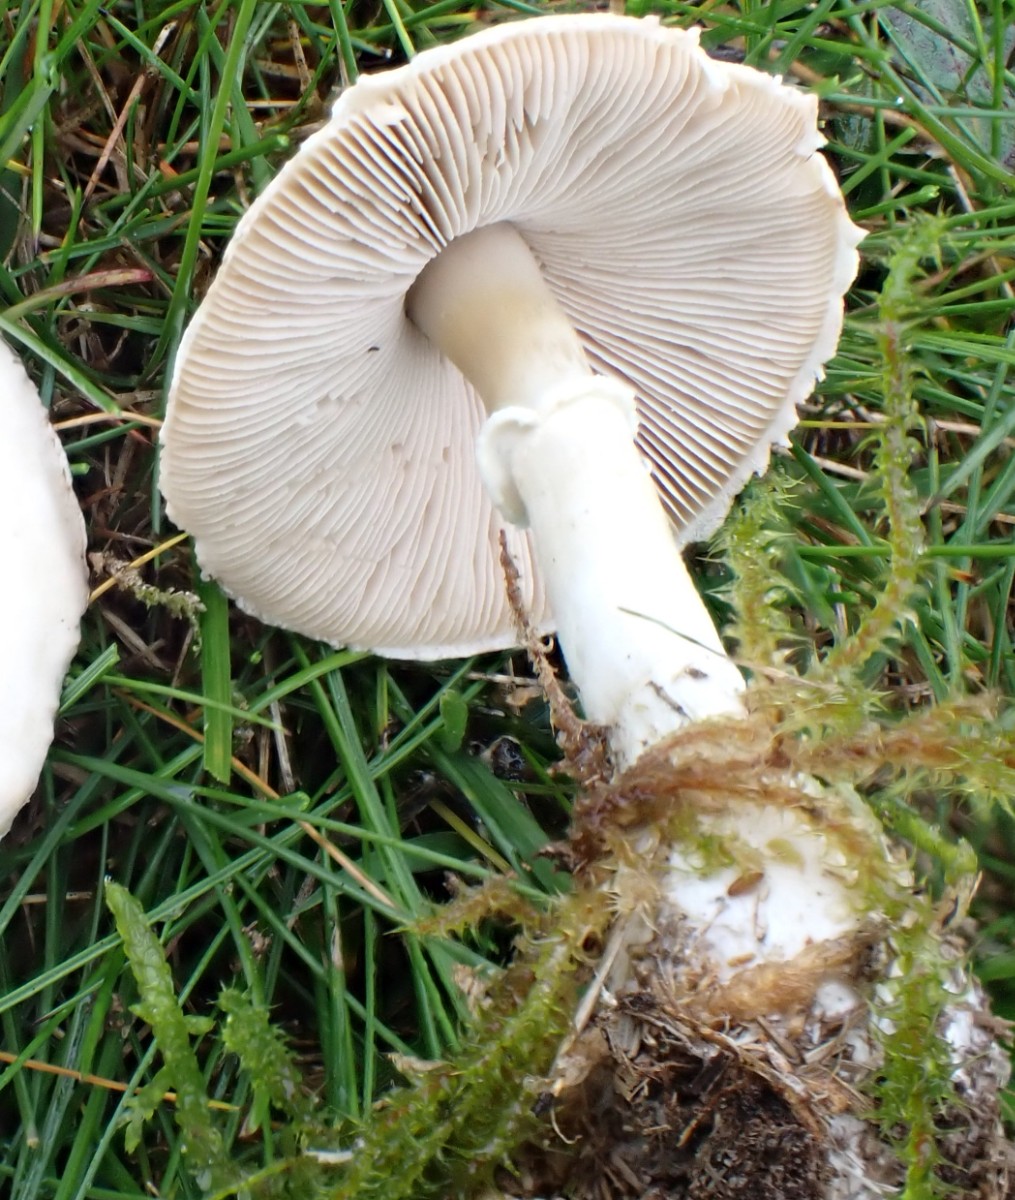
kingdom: Fungi
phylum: Basidiomycota
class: Agaricomycetes
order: Agaricales
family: Agaricaceae
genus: Macrolepiota
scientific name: Macrolepiota excoriata
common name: mark-kæmpeparasolhat
